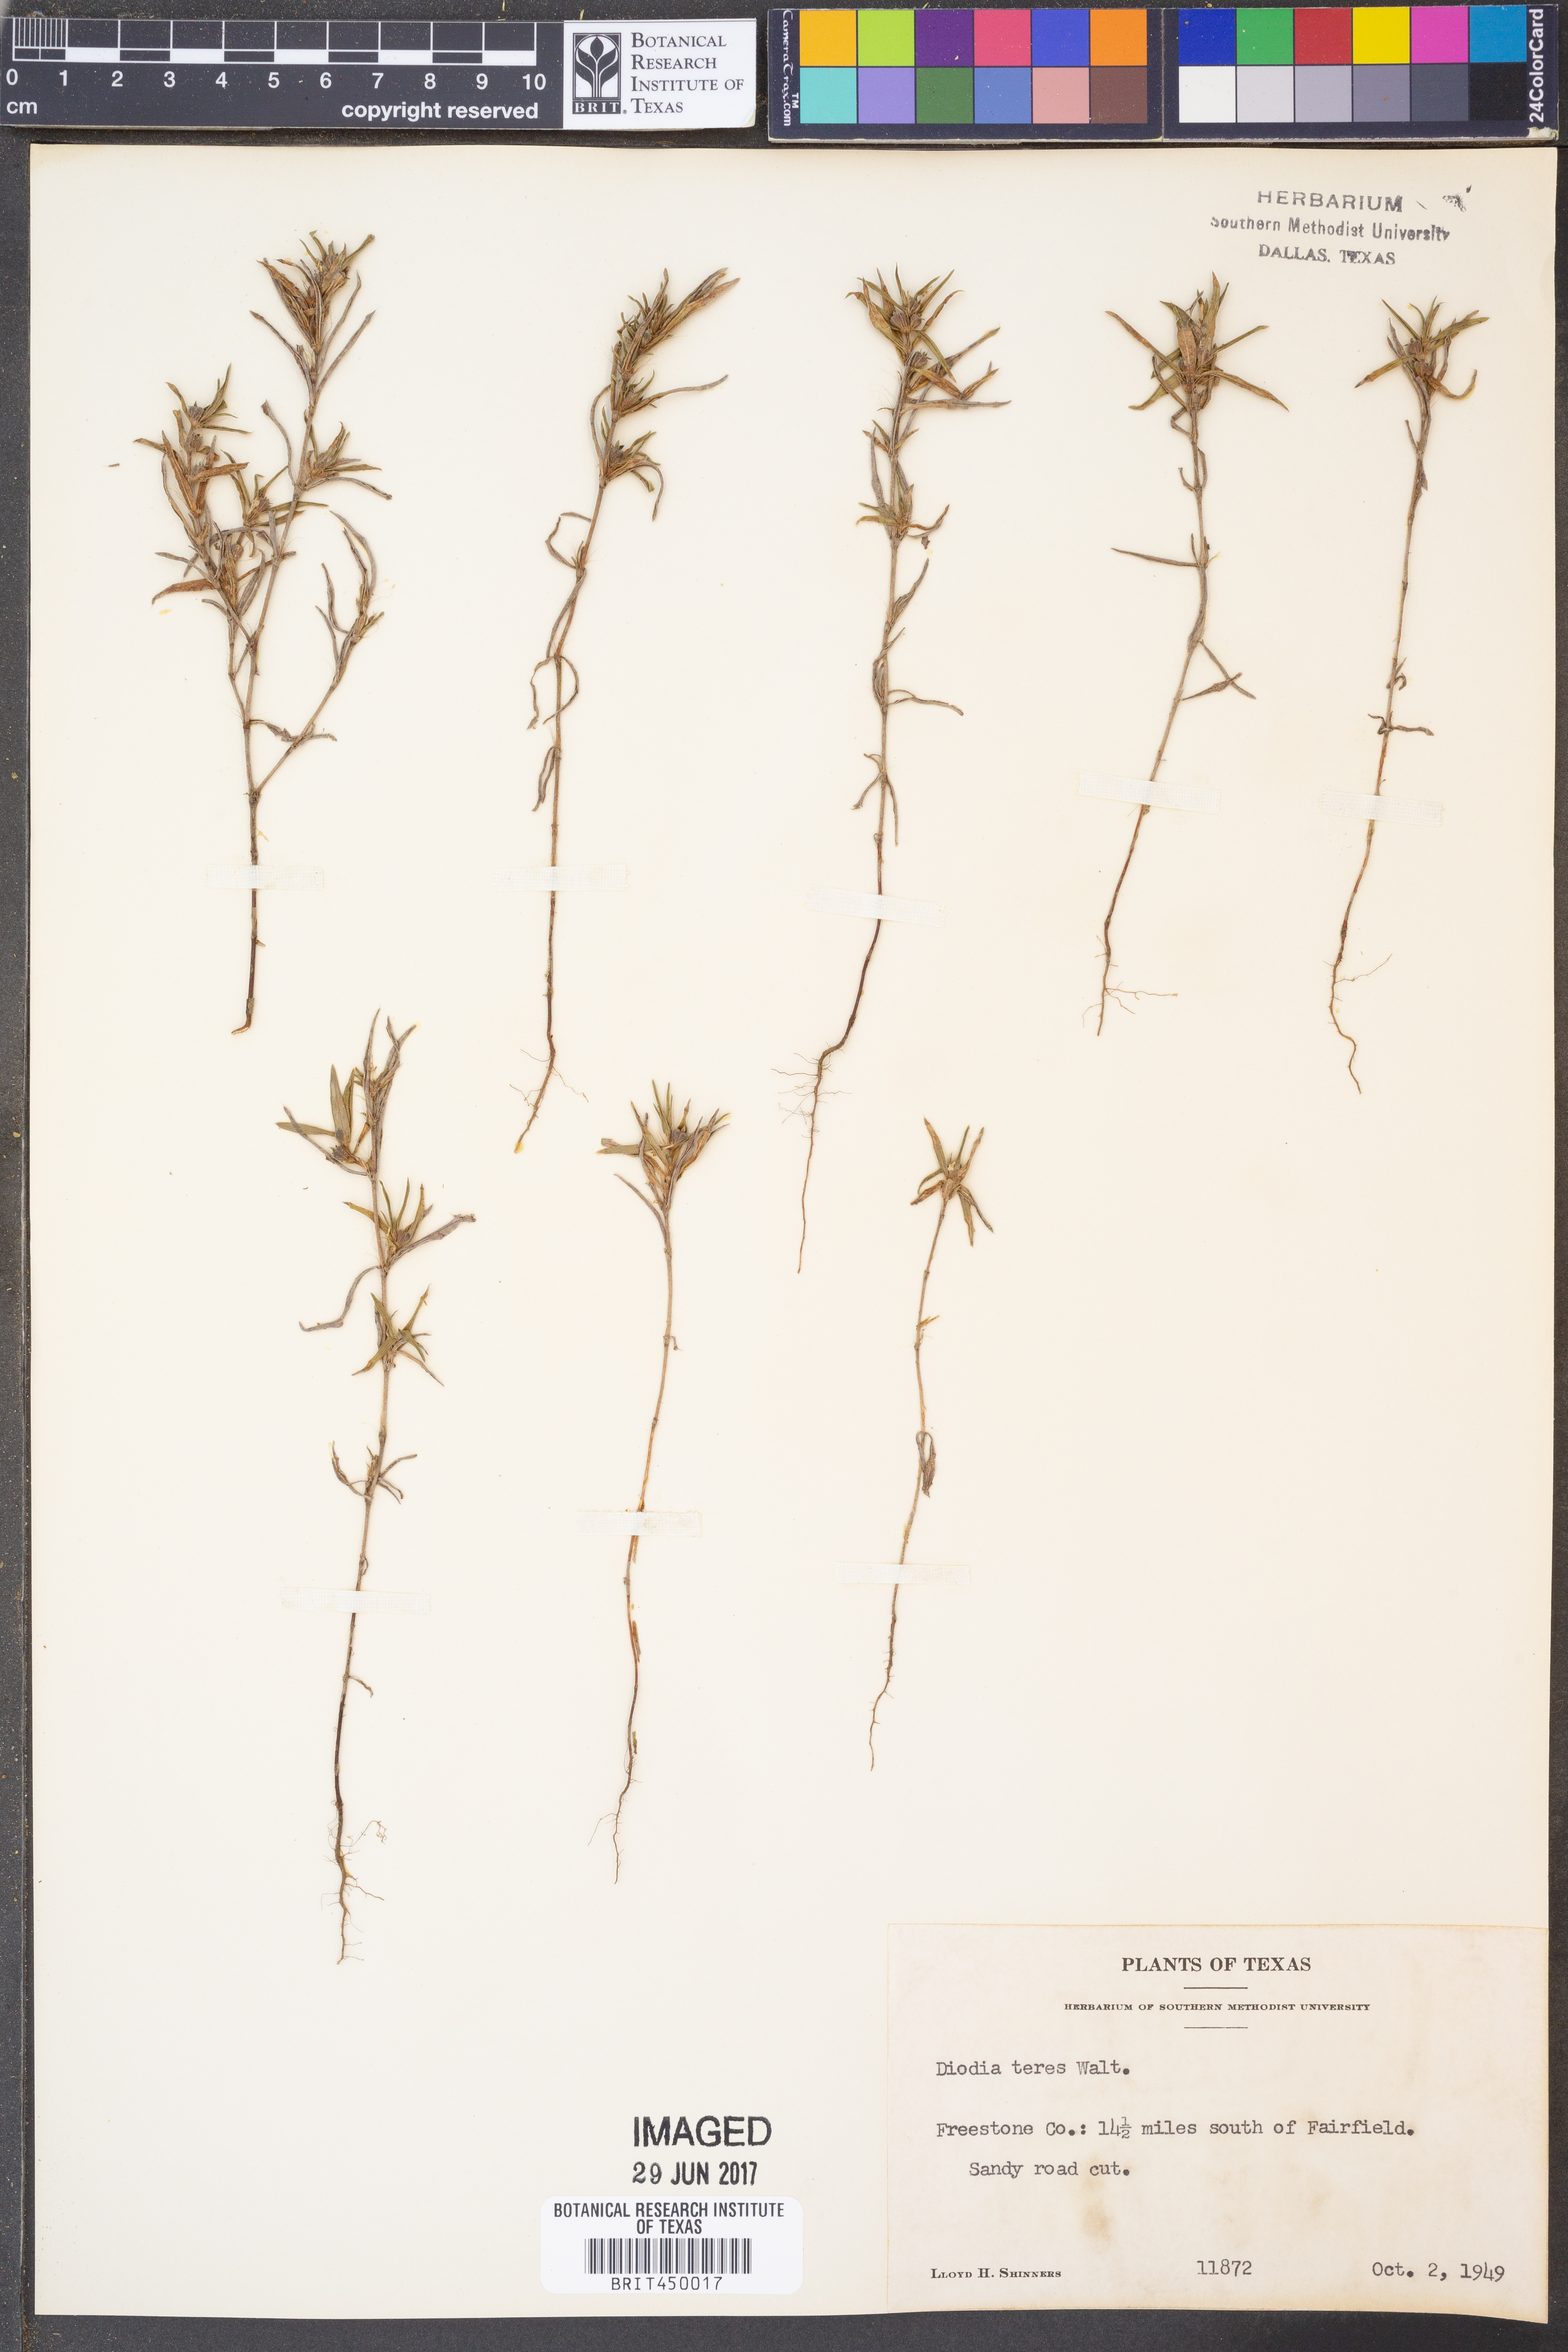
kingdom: Plantae
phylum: Tracheophyta
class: Magnoliopsida
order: Gentianales
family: Rubiaceae
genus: Hexasepalum
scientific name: Hexasepalum teres
